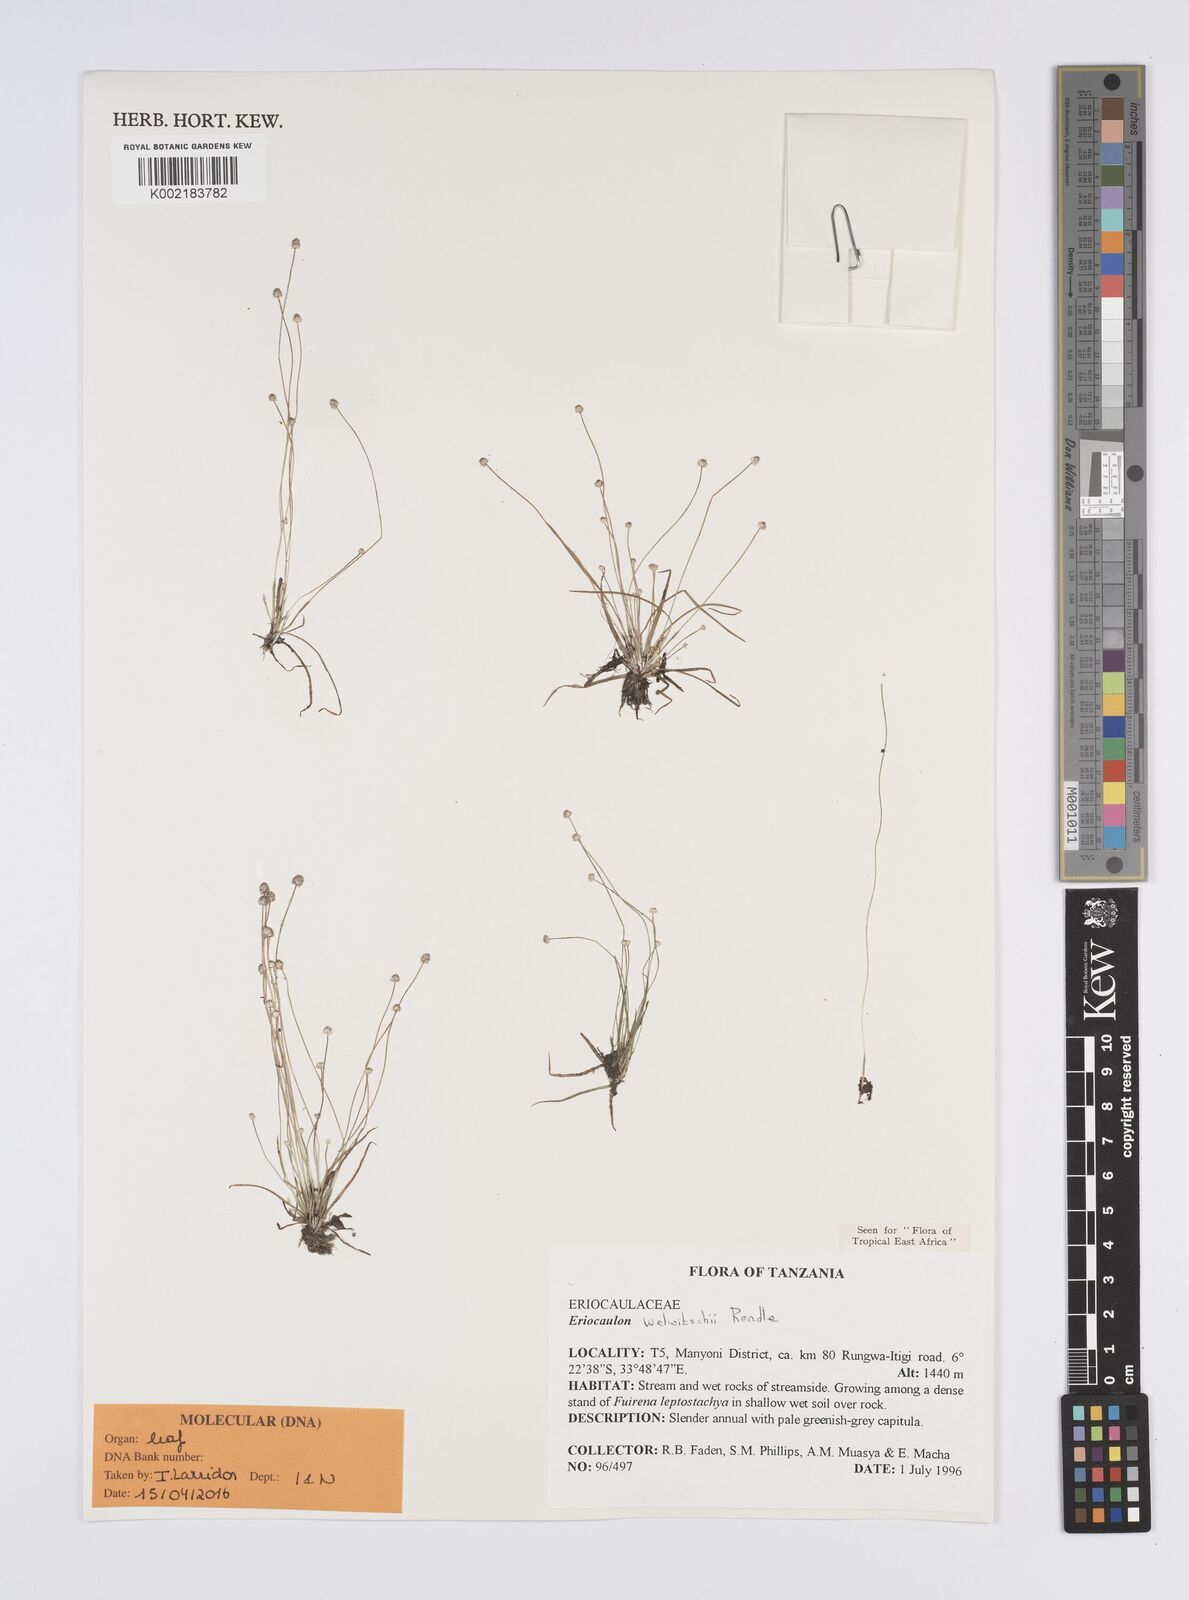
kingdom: Plantae
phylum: Tracheophyta
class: Liliopsida
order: Poales
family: Eriocaulaceae
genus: Eriocaulon
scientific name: Eriocaulon welwitschii
